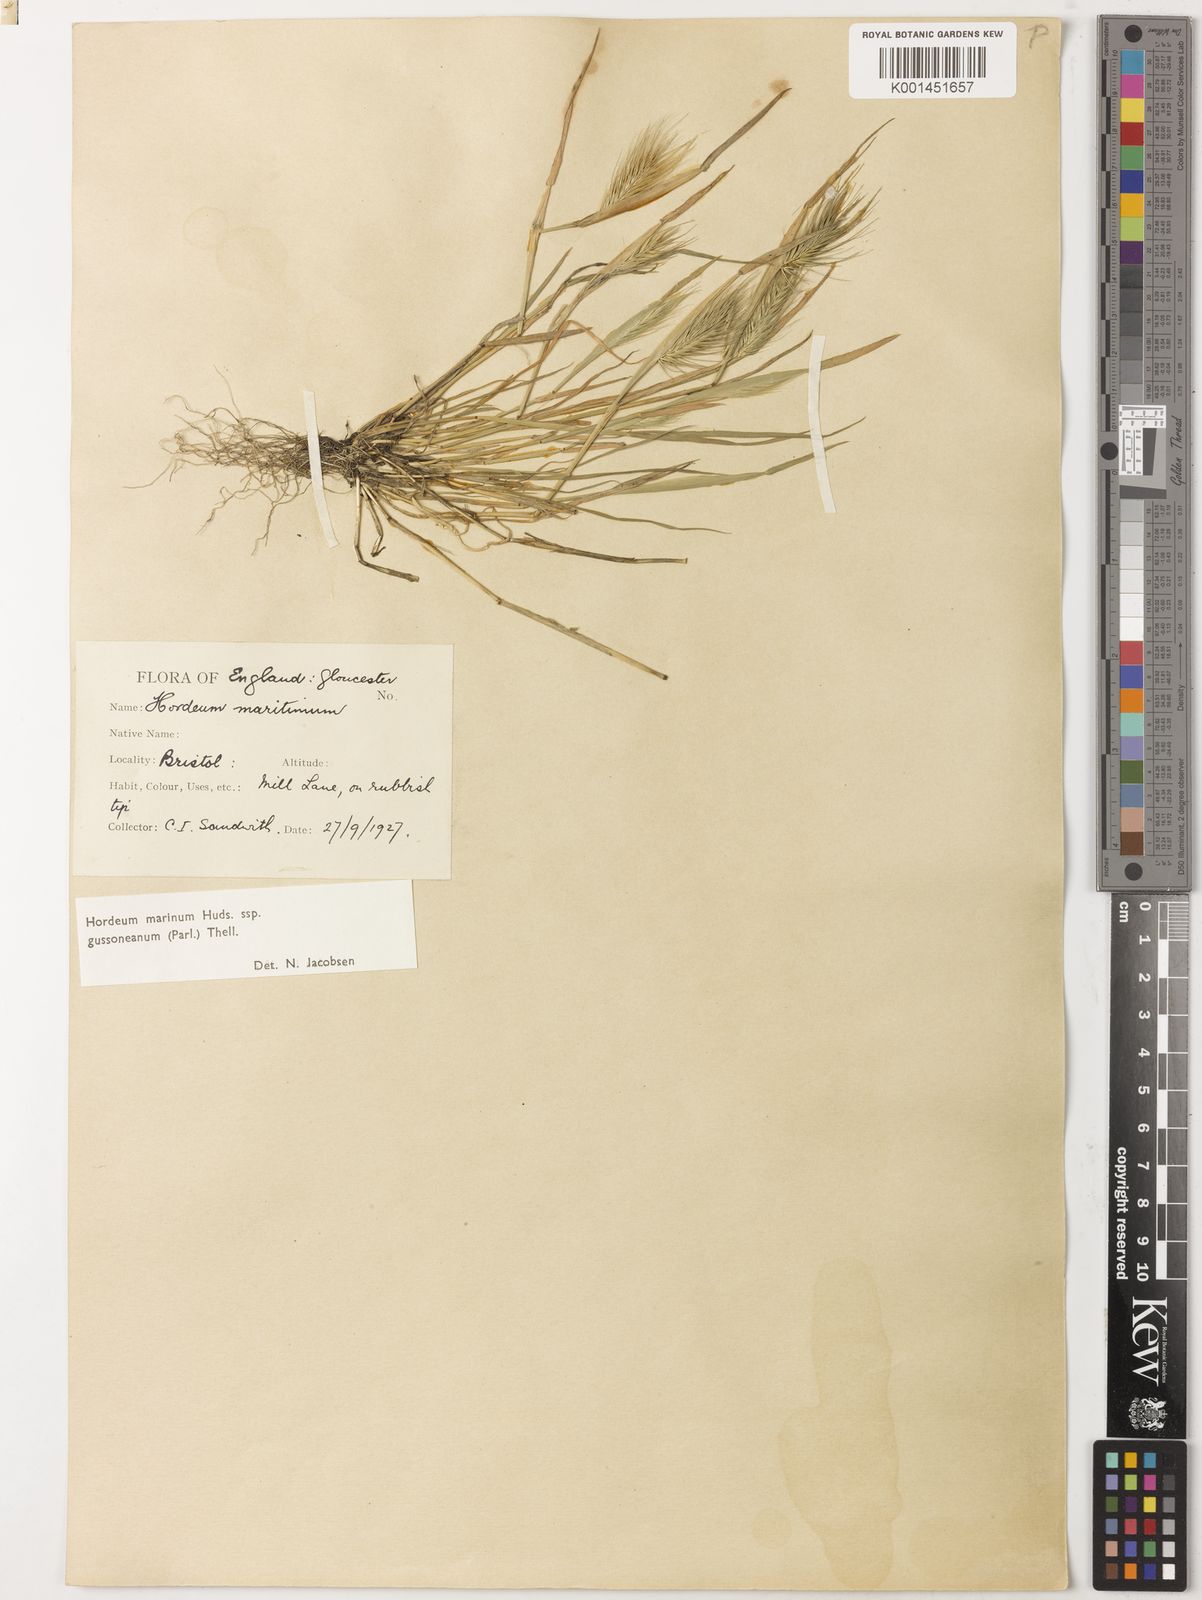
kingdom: Plantae
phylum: Tracheophyta
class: Liliopsida
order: Poales
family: Poaceae
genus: Hordeum
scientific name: Hordeum marinum
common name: Sea barley
